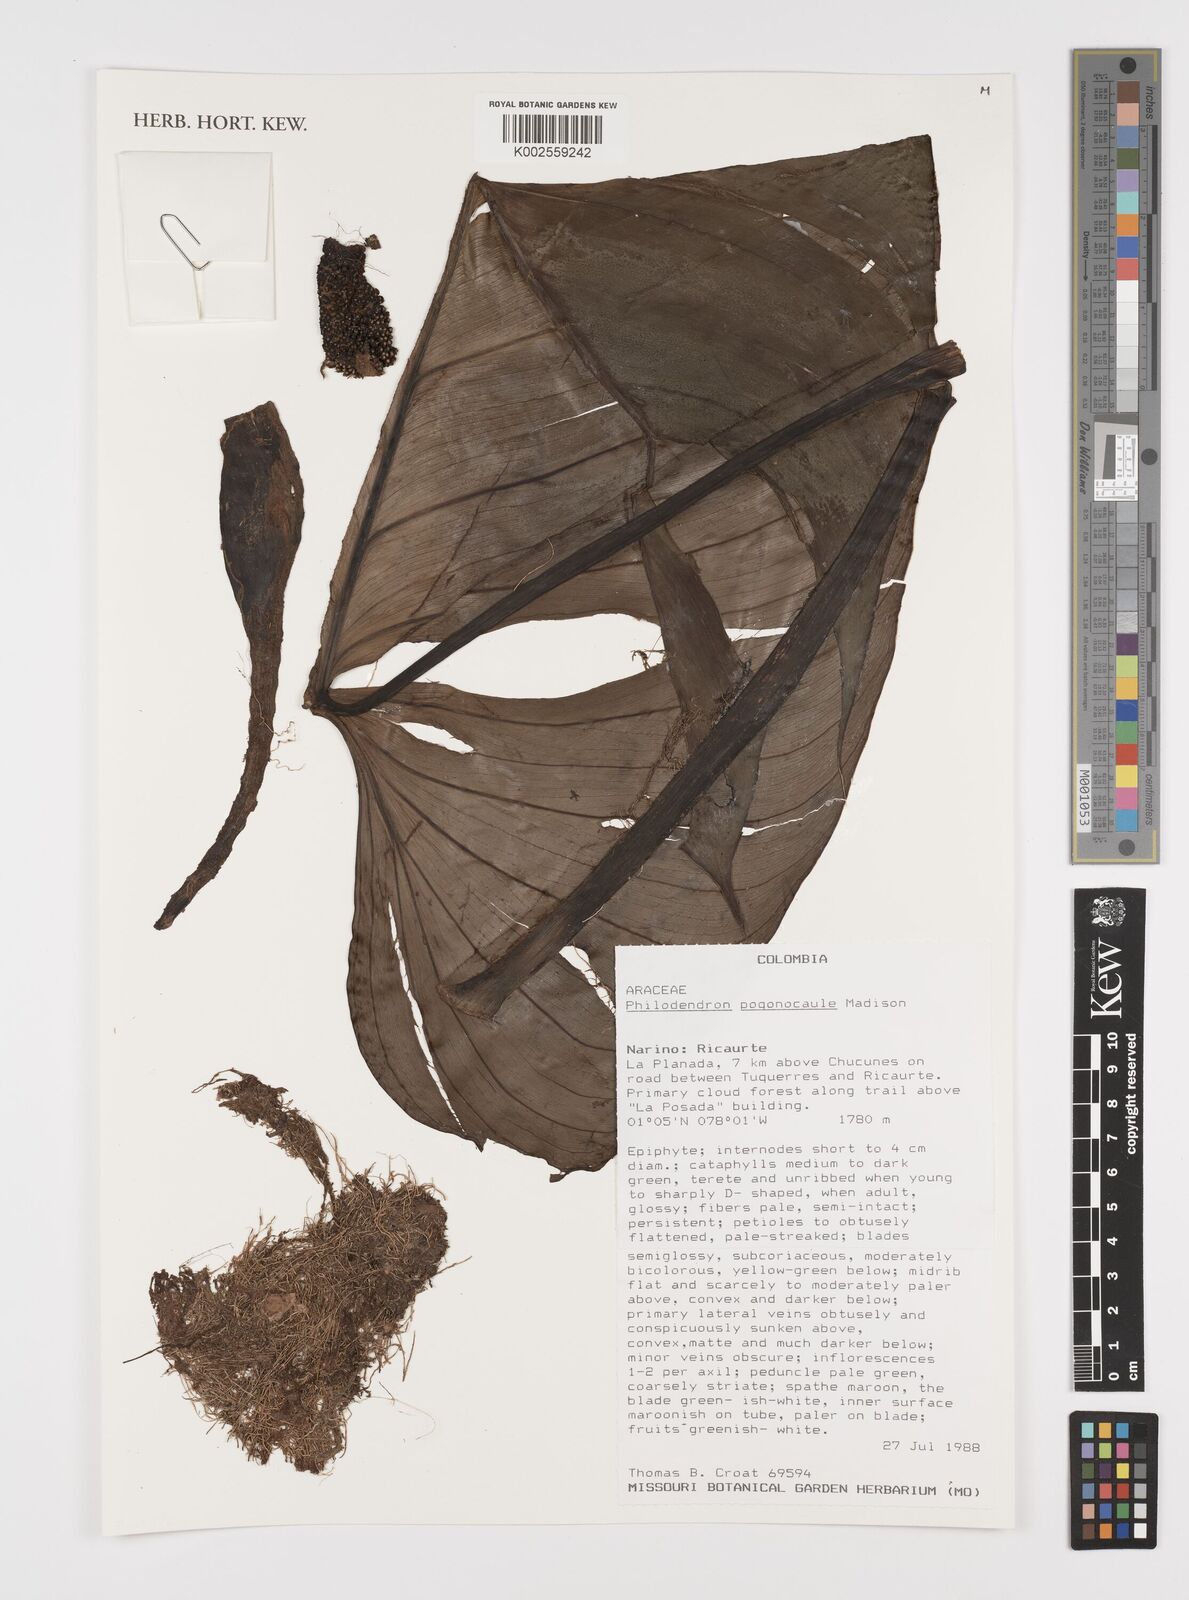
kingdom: Plantae
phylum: Tracheophyta
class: Liliopsida
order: Alismatales
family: Araceae
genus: Philodendron
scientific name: Philodendron pogonocaule
